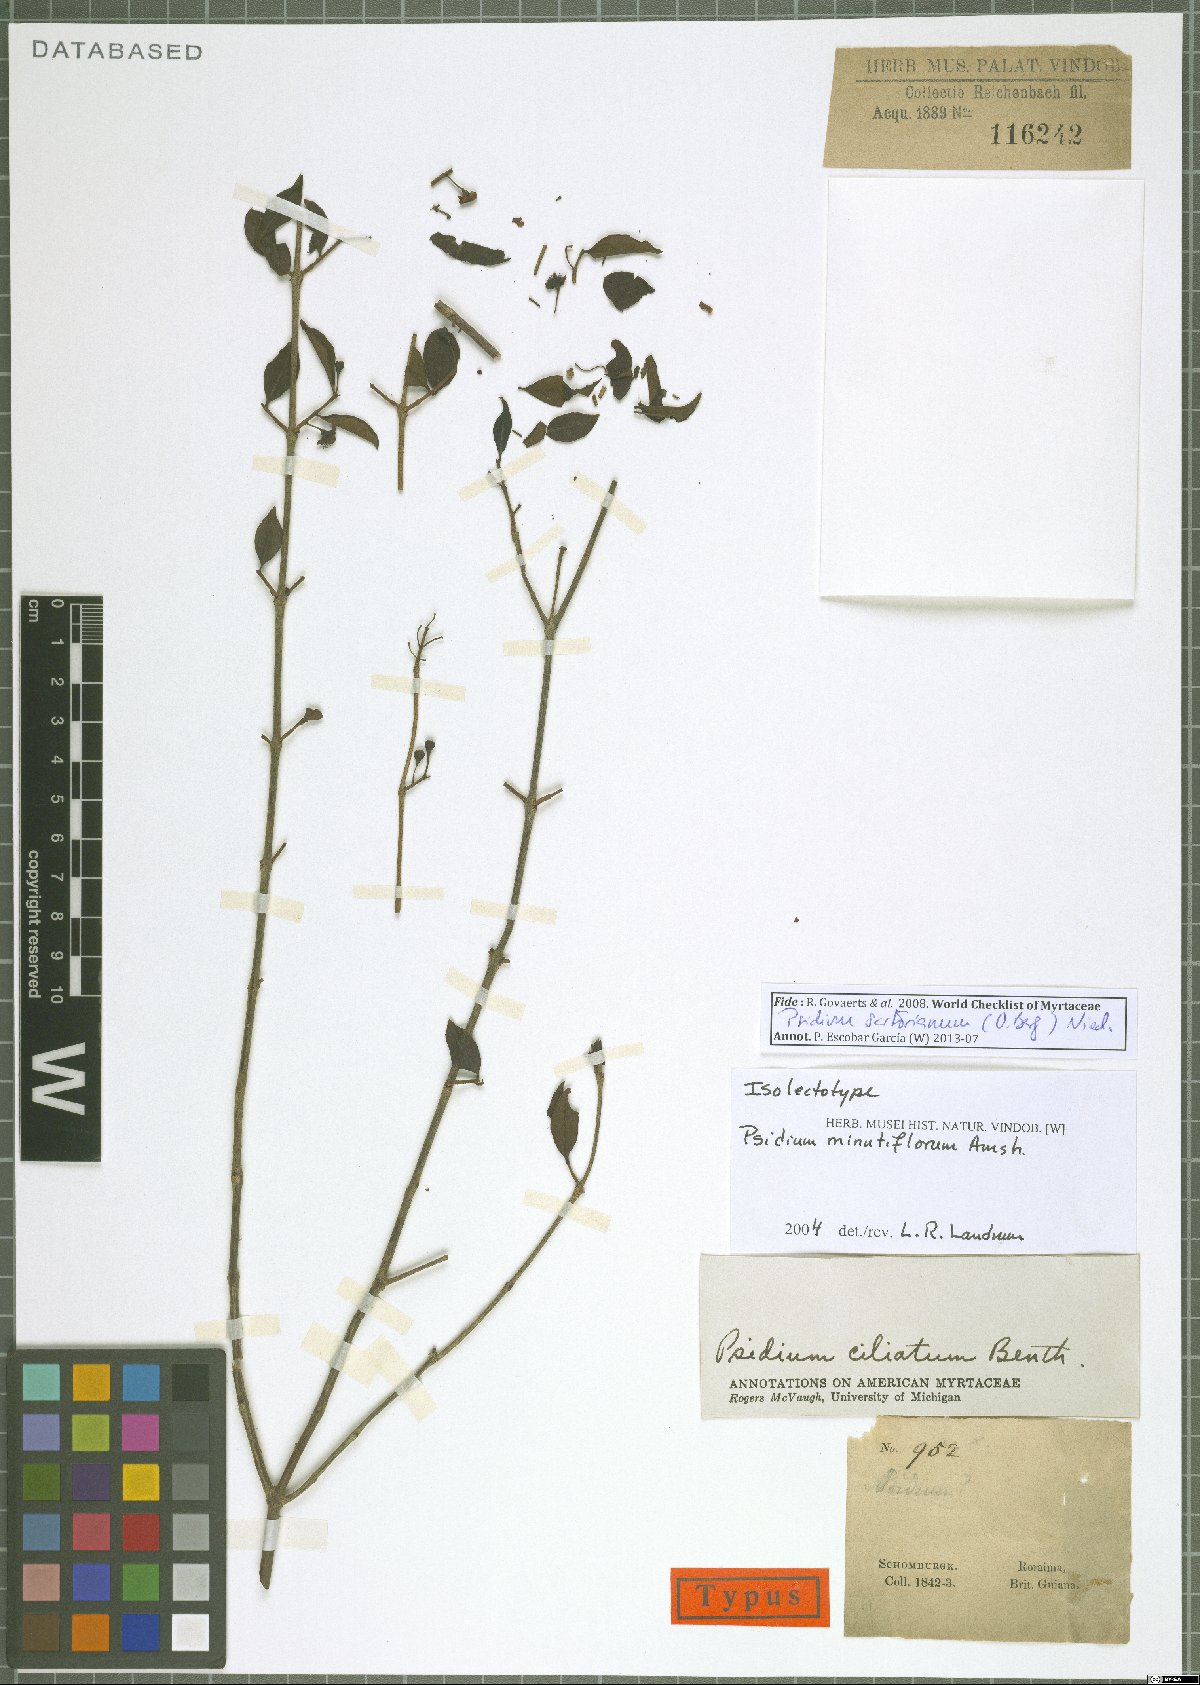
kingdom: Plantae
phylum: Tracheophyta
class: Magnoliopsida
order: Myrtales
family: Myrtaceae
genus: Psidium
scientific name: Psidium sartorianum
